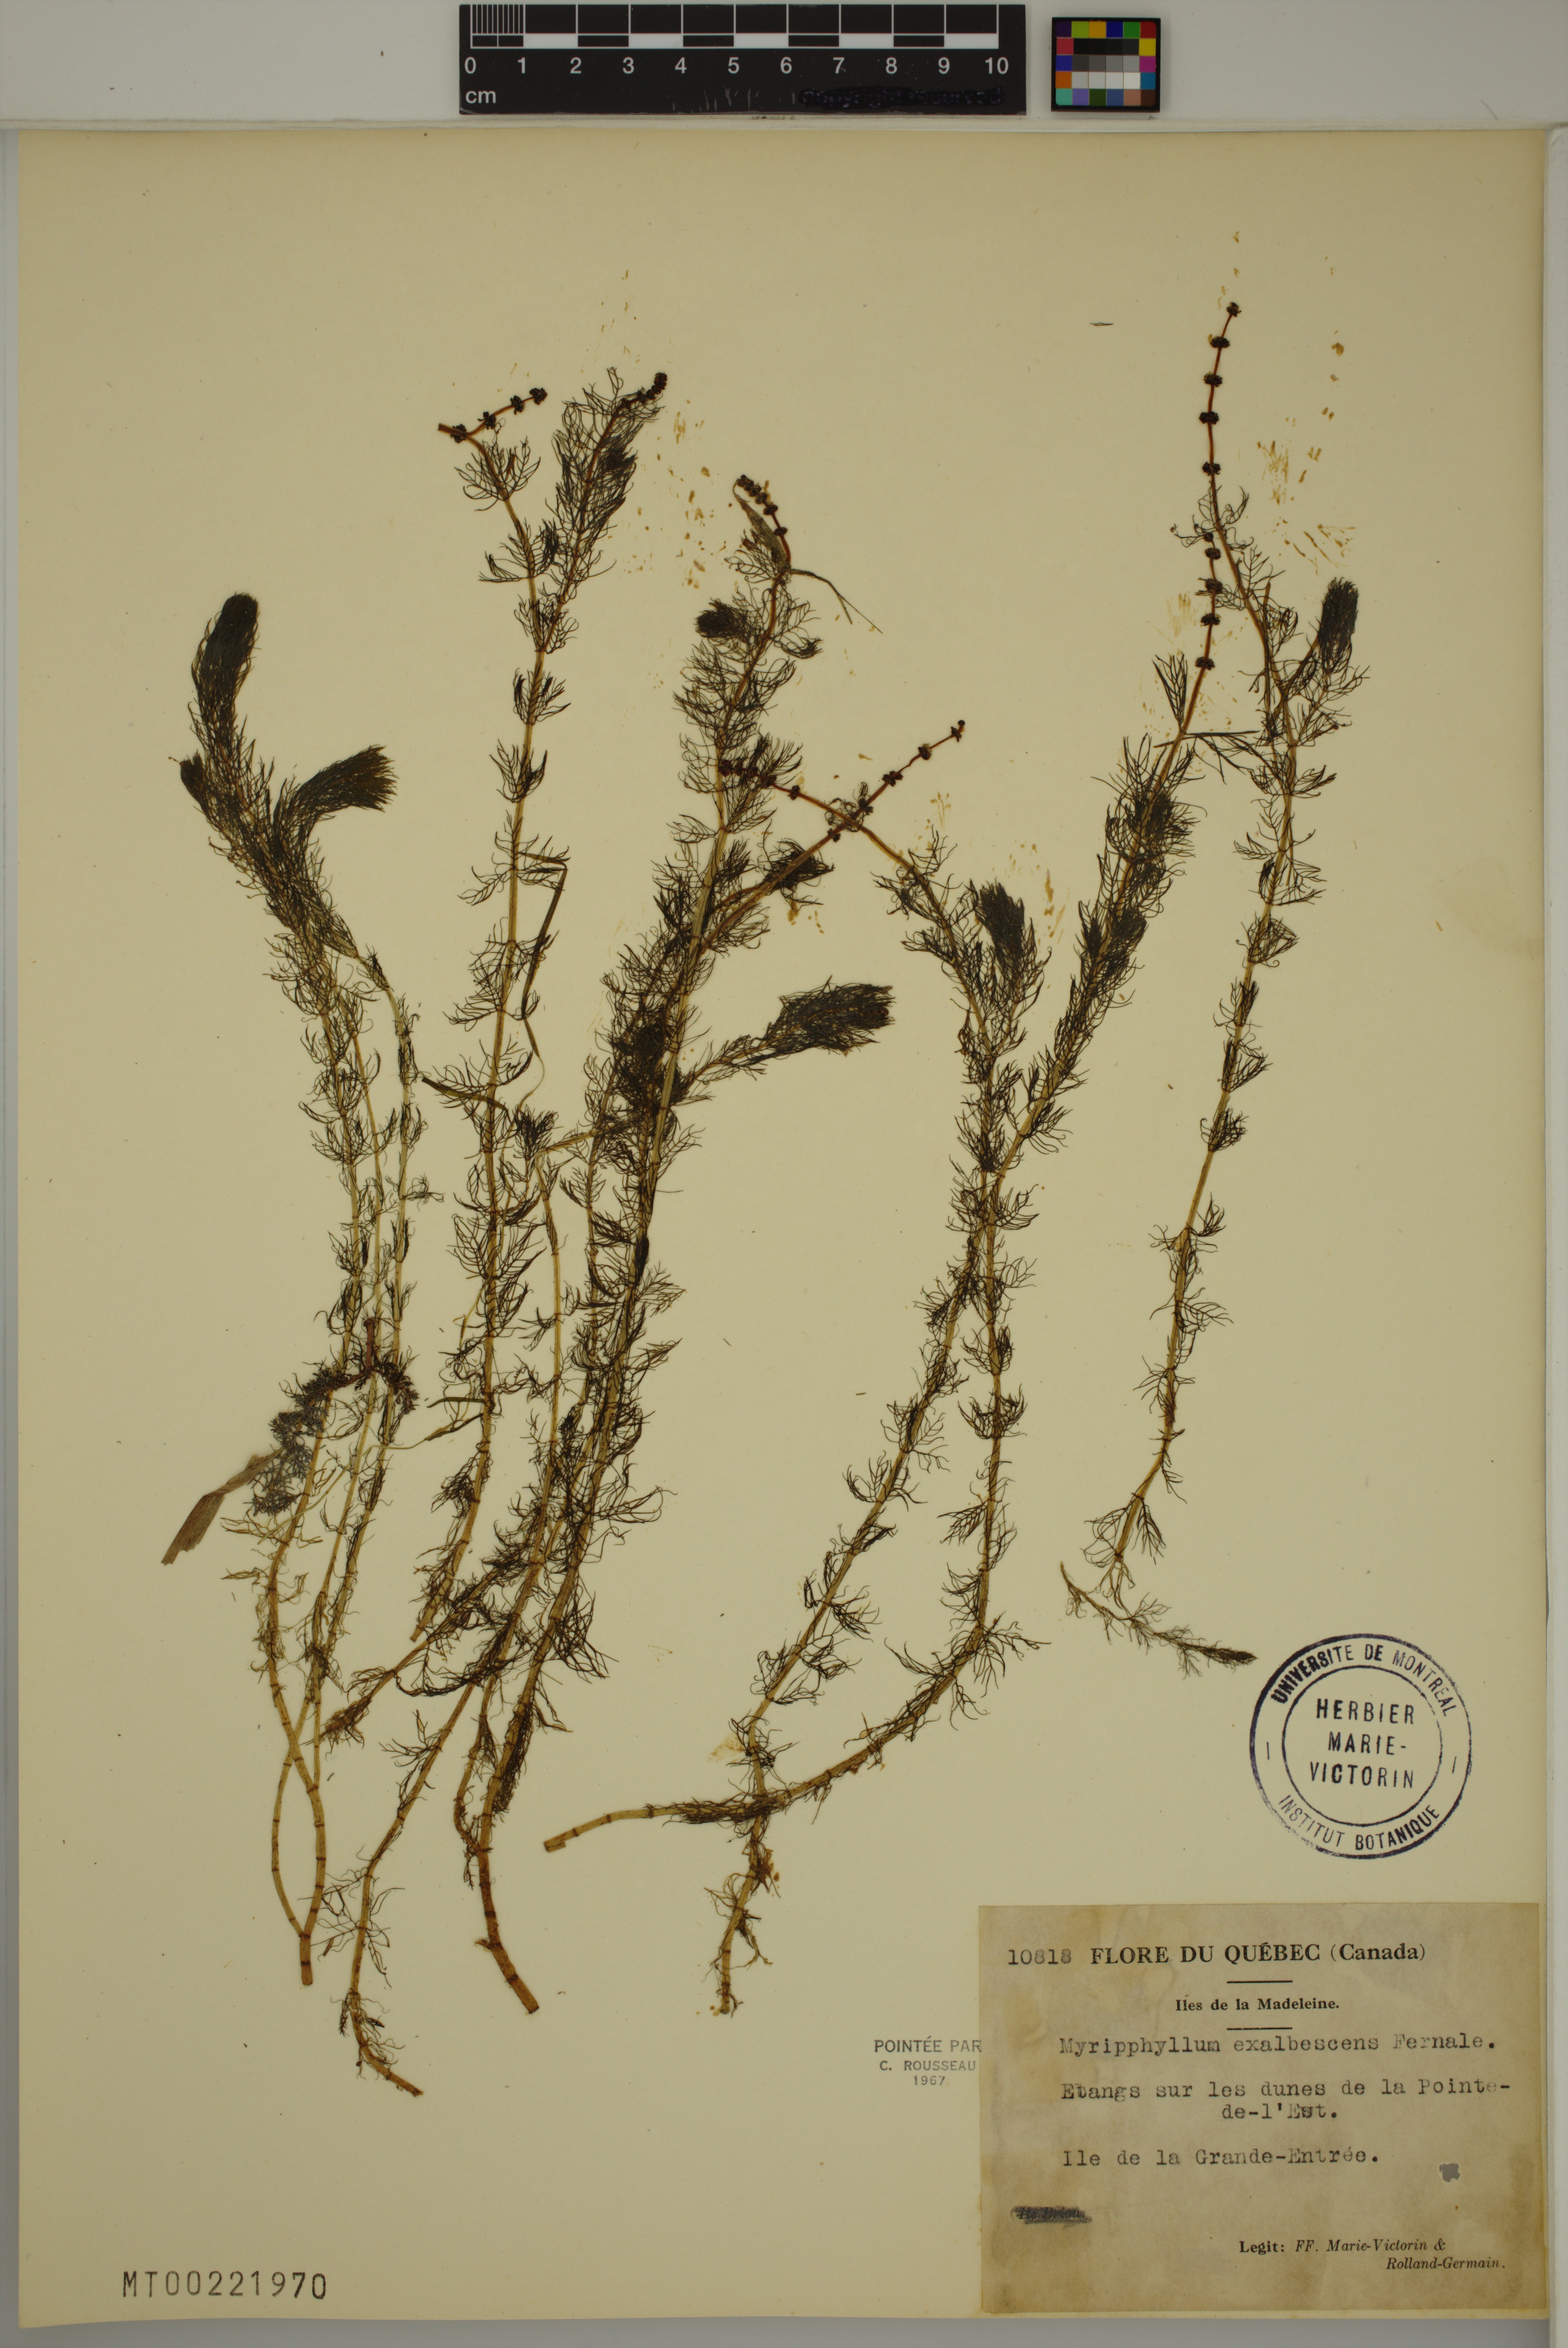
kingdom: Plantae
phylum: Tracheophyta
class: Magnoliopsida
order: Saxifragales
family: Haloragaceae
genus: Myriophyllum
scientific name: Myriophyllum sibiricum
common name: Siberian water-milfoil
